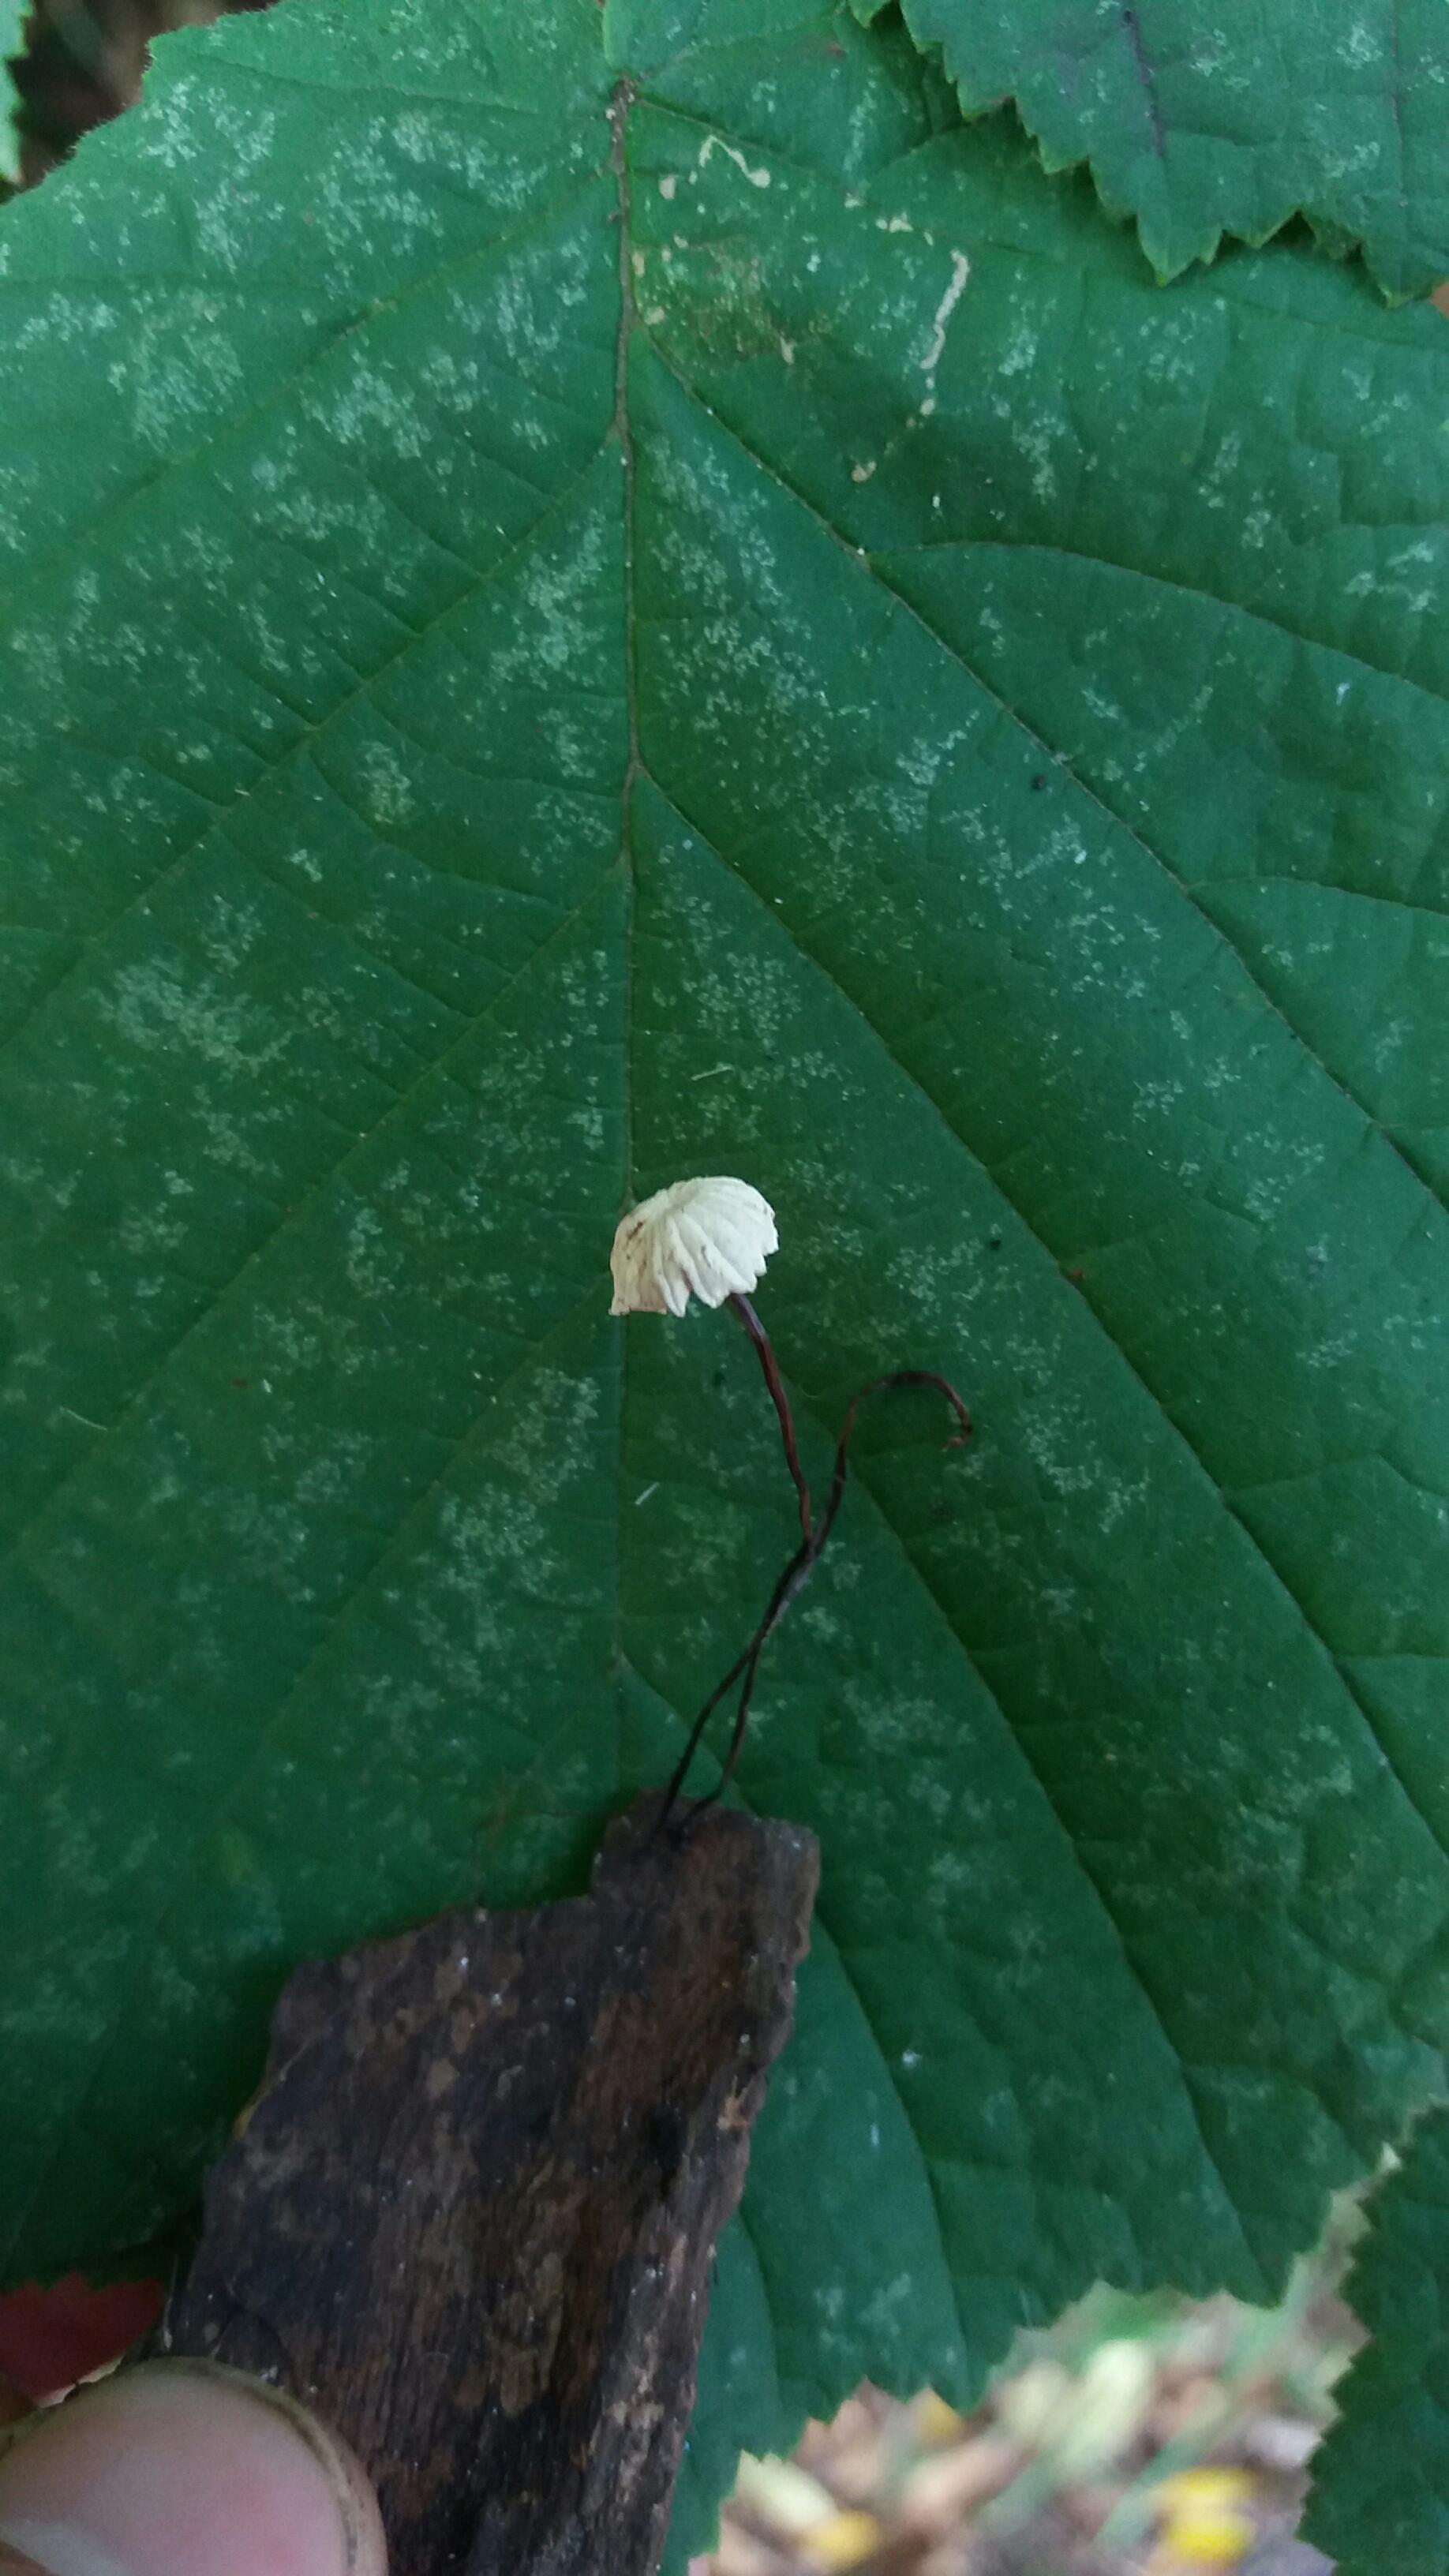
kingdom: Fungi
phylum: Basidiomycota
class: Agaricomycetes
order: Agaricales
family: Marasmiaceae
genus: Marasmius
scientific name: Marasmius rotula
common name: hjul-bruskhat
